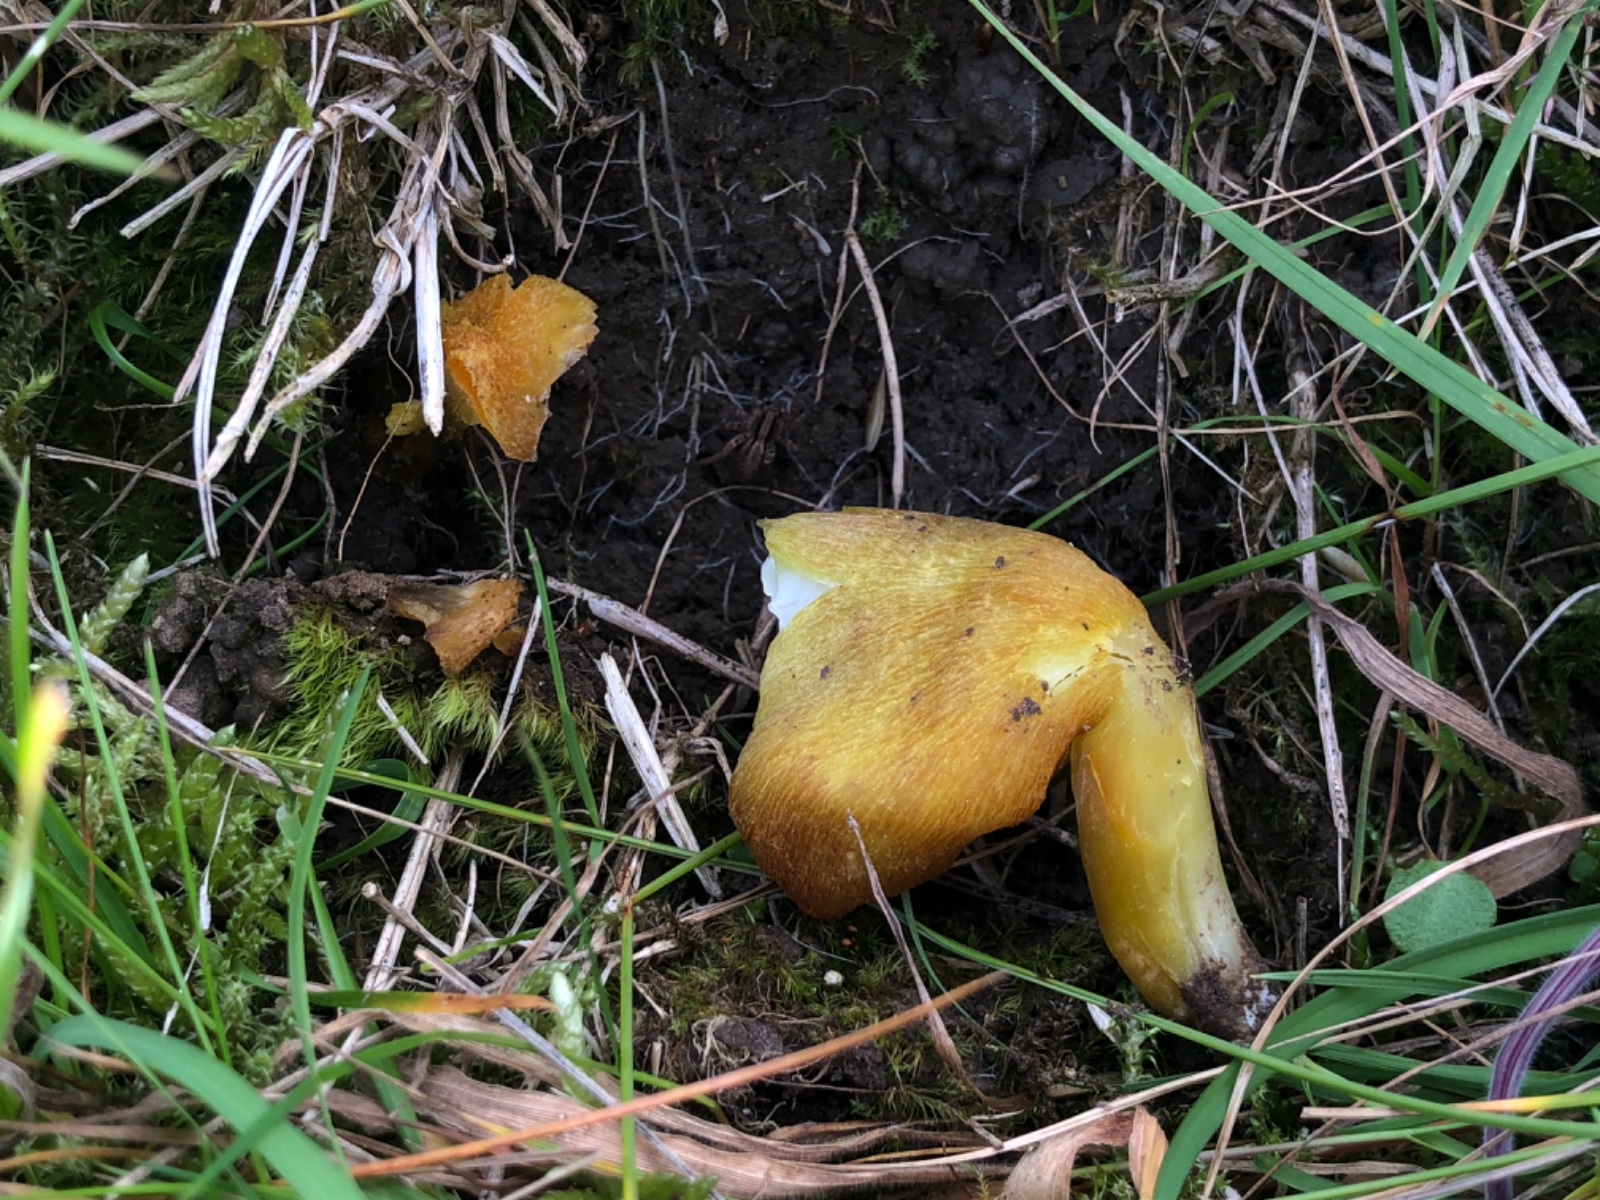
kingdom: Fungi
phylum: Basidiomycota
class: Agaricomycetes
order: Agaricales
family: Hygrophoraceae
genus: Hygrocybe
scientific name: Hygrocybe citrinovirens
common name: grøngul vokshat
